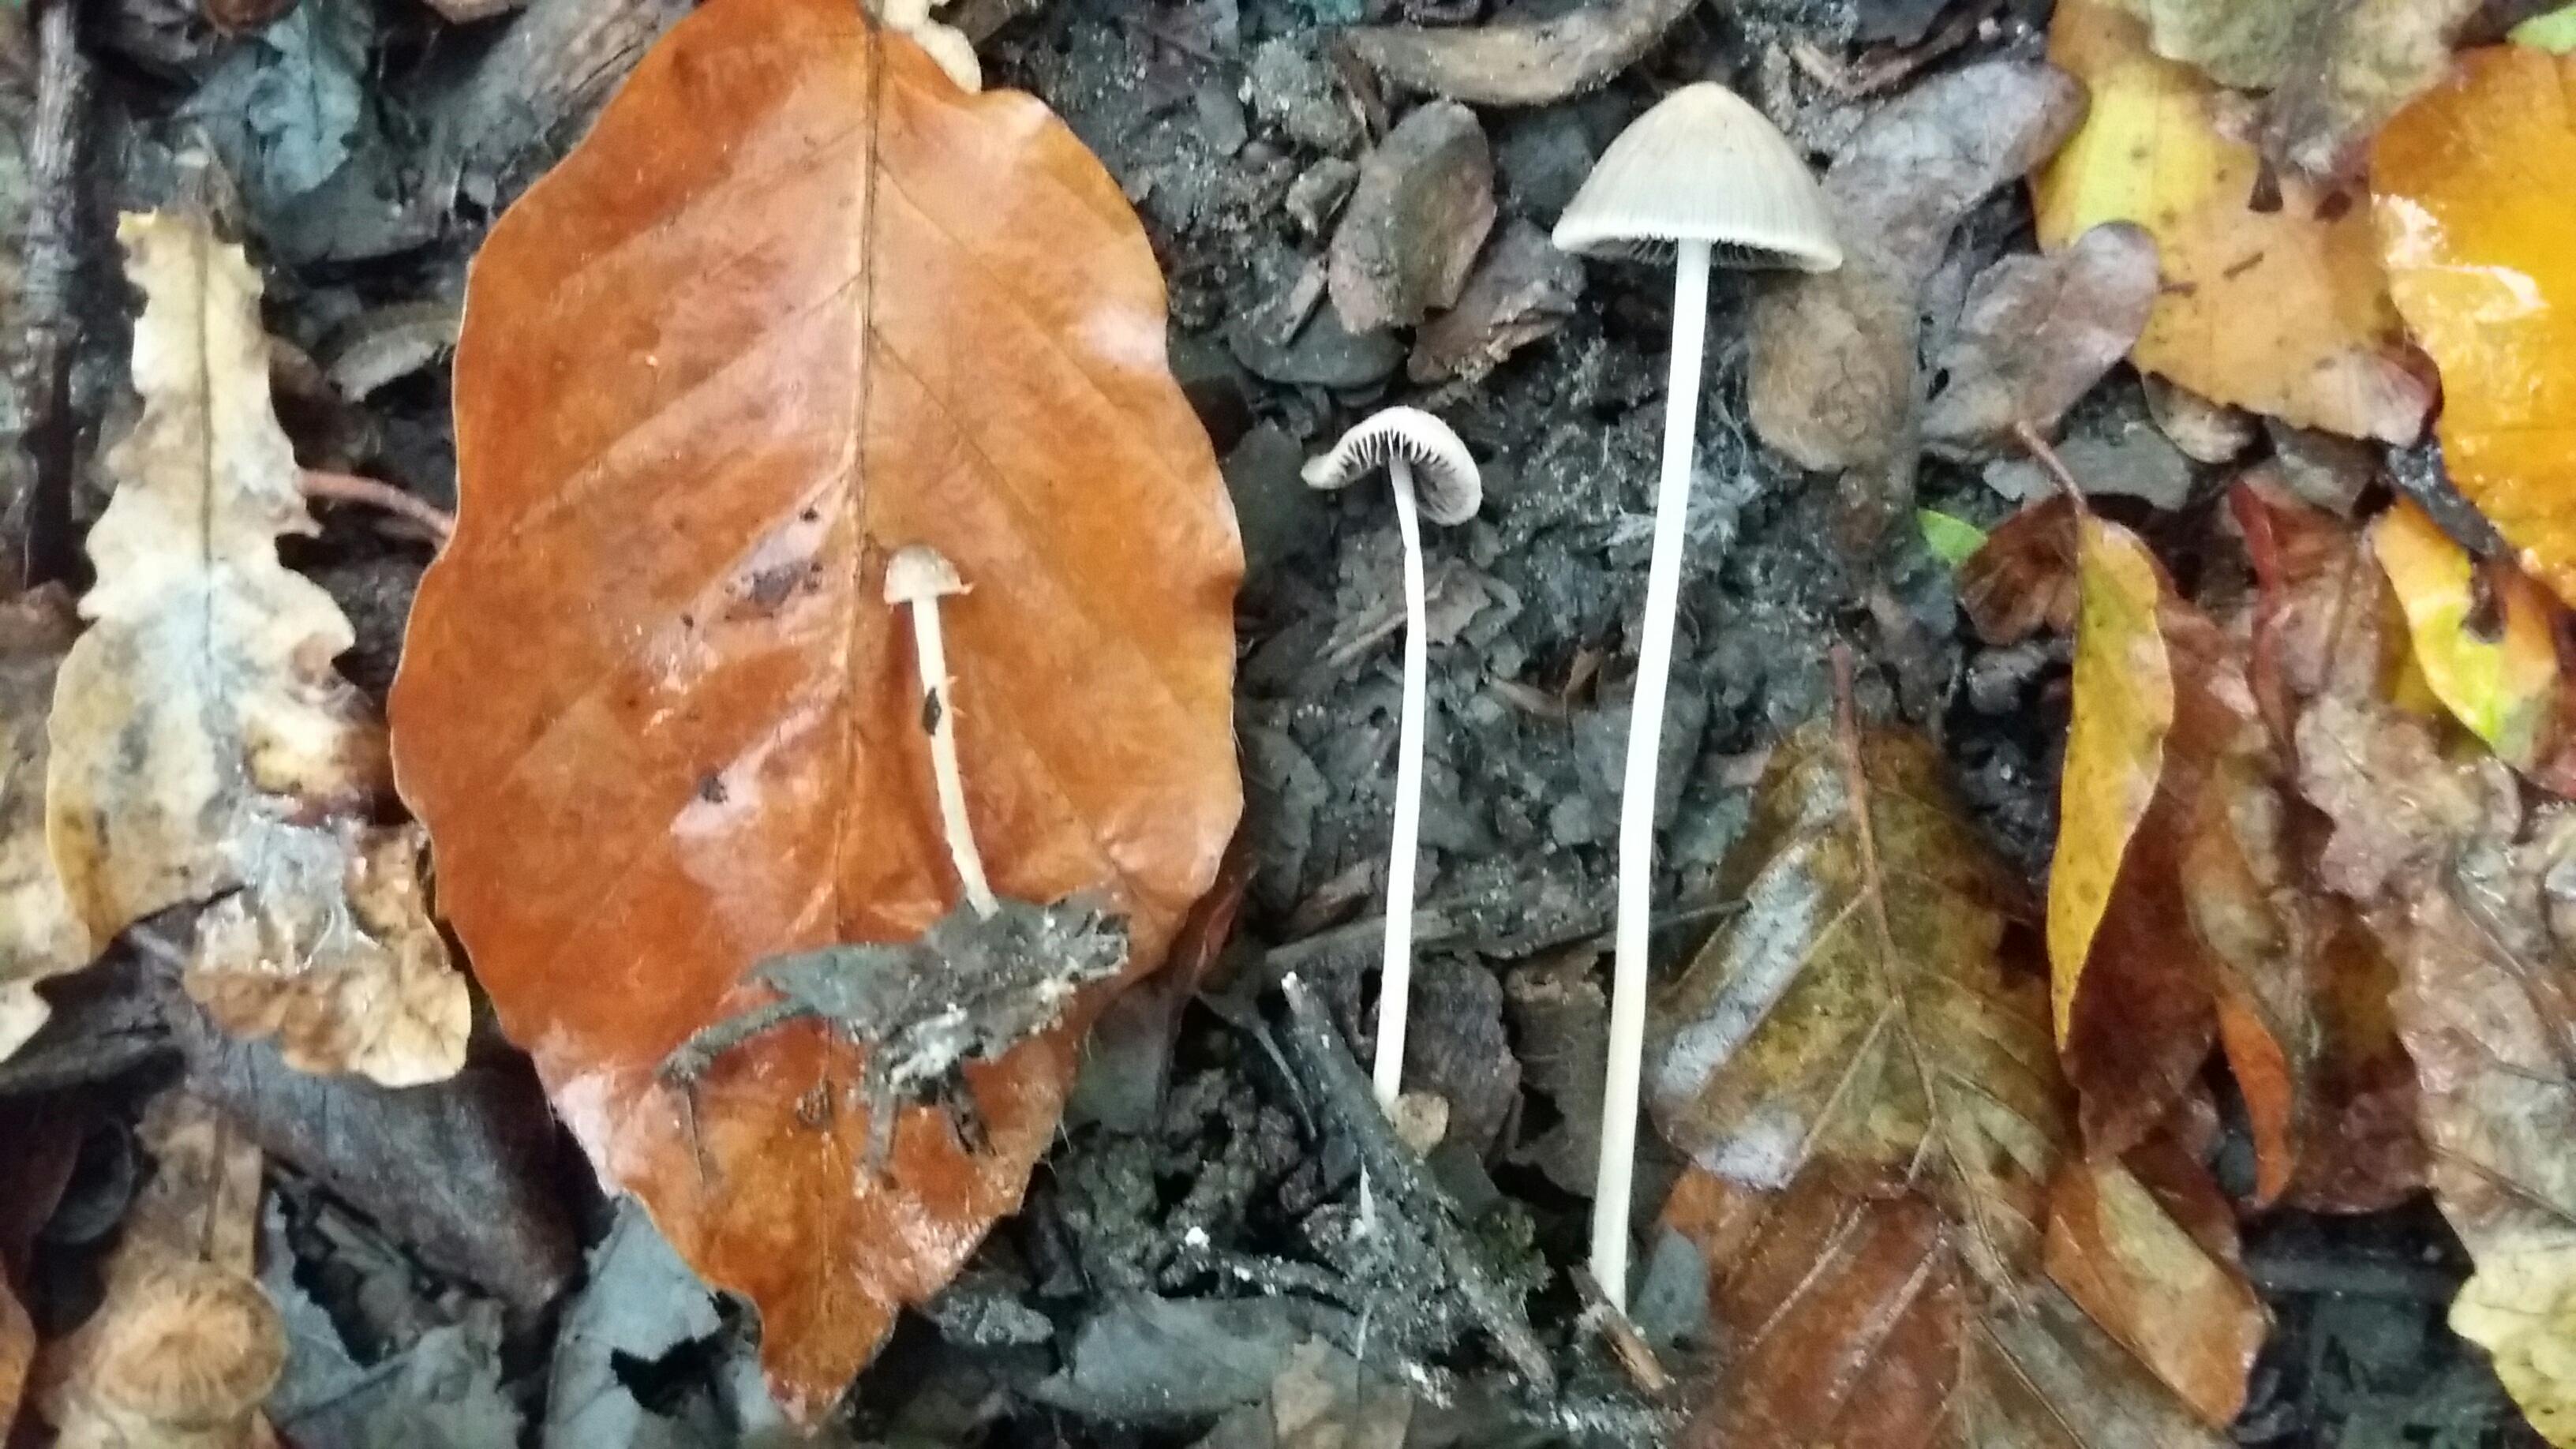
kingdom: Fungi
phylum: Basidiomycota
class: Agaricomycetes
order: Agaricales
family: Psathyrellaceae
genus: Psathyrella
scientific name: Psathyrella
